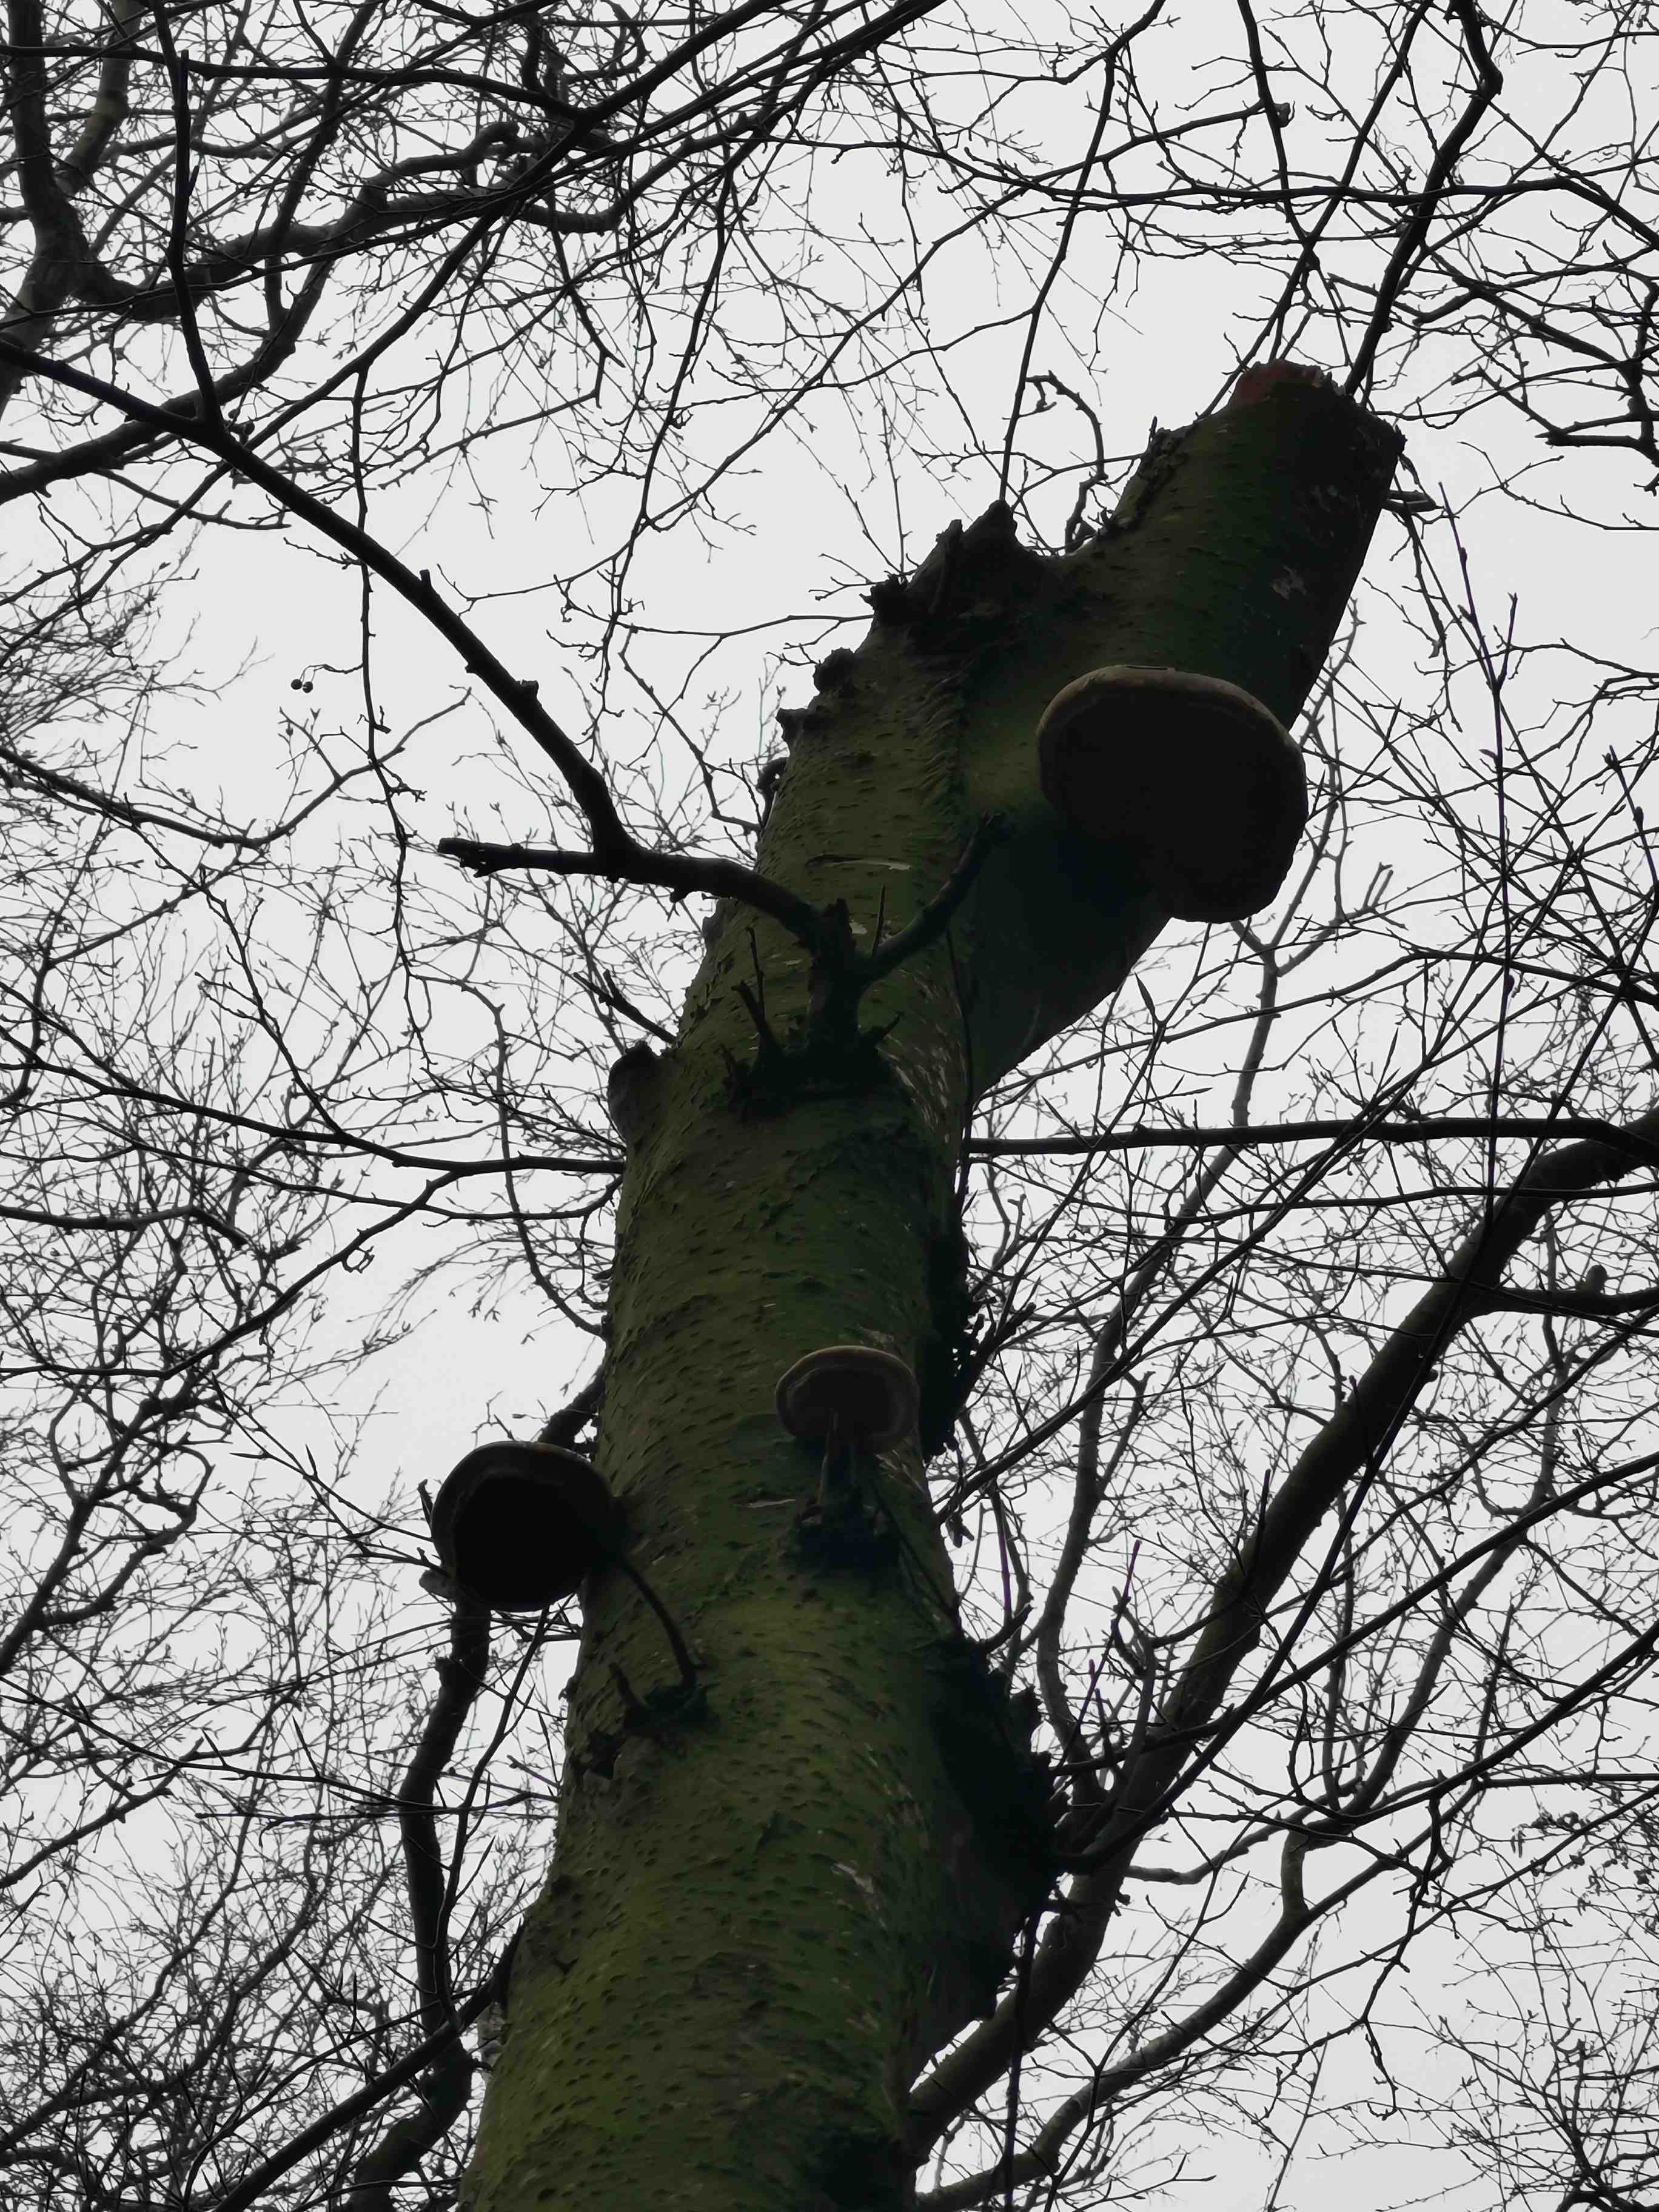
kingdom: Fungi
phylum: Basidiomycota
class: Agaricomycetes
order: Polyporales
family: Fomitopsidaceae
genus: Fomitopsis
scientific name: Fomitopsis betulina
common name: birkeporesvamp
